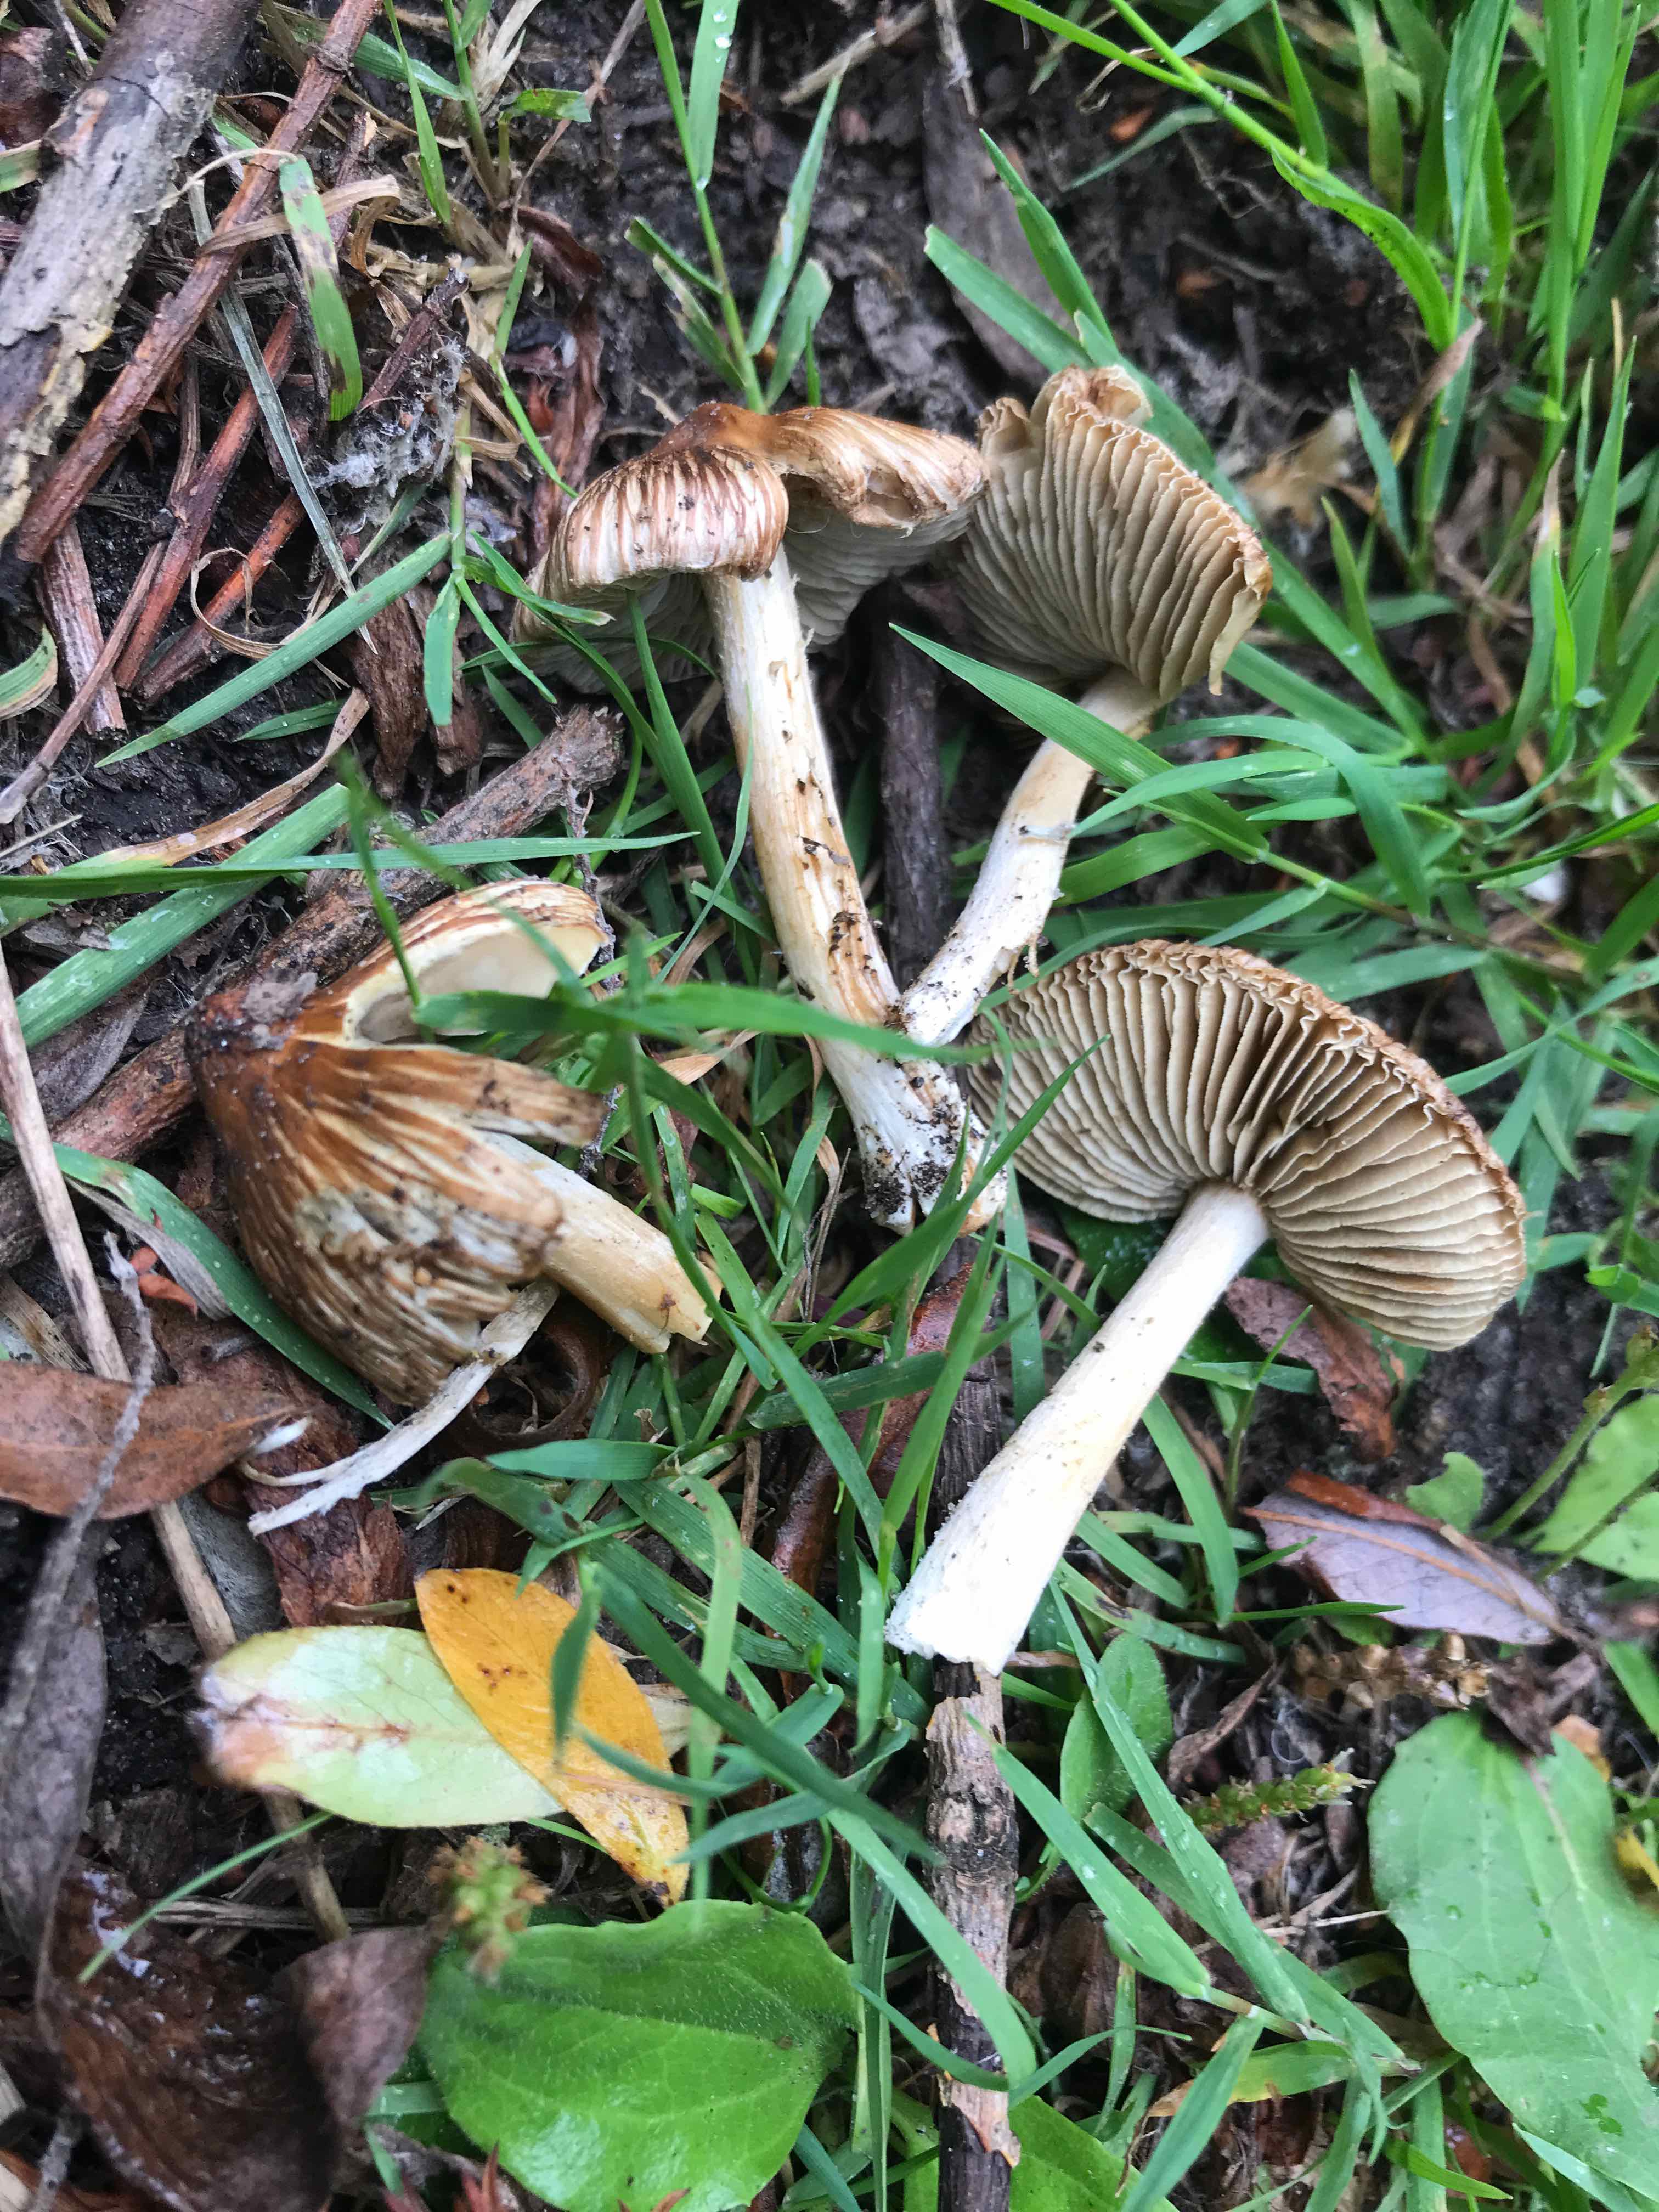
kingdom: Fungi
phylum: Basidiomycota
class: Agaricomycetes
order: Agaricales
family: Inocybaceae
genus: Pseudosperma
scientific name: Pseudosperma
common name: trævlhat
